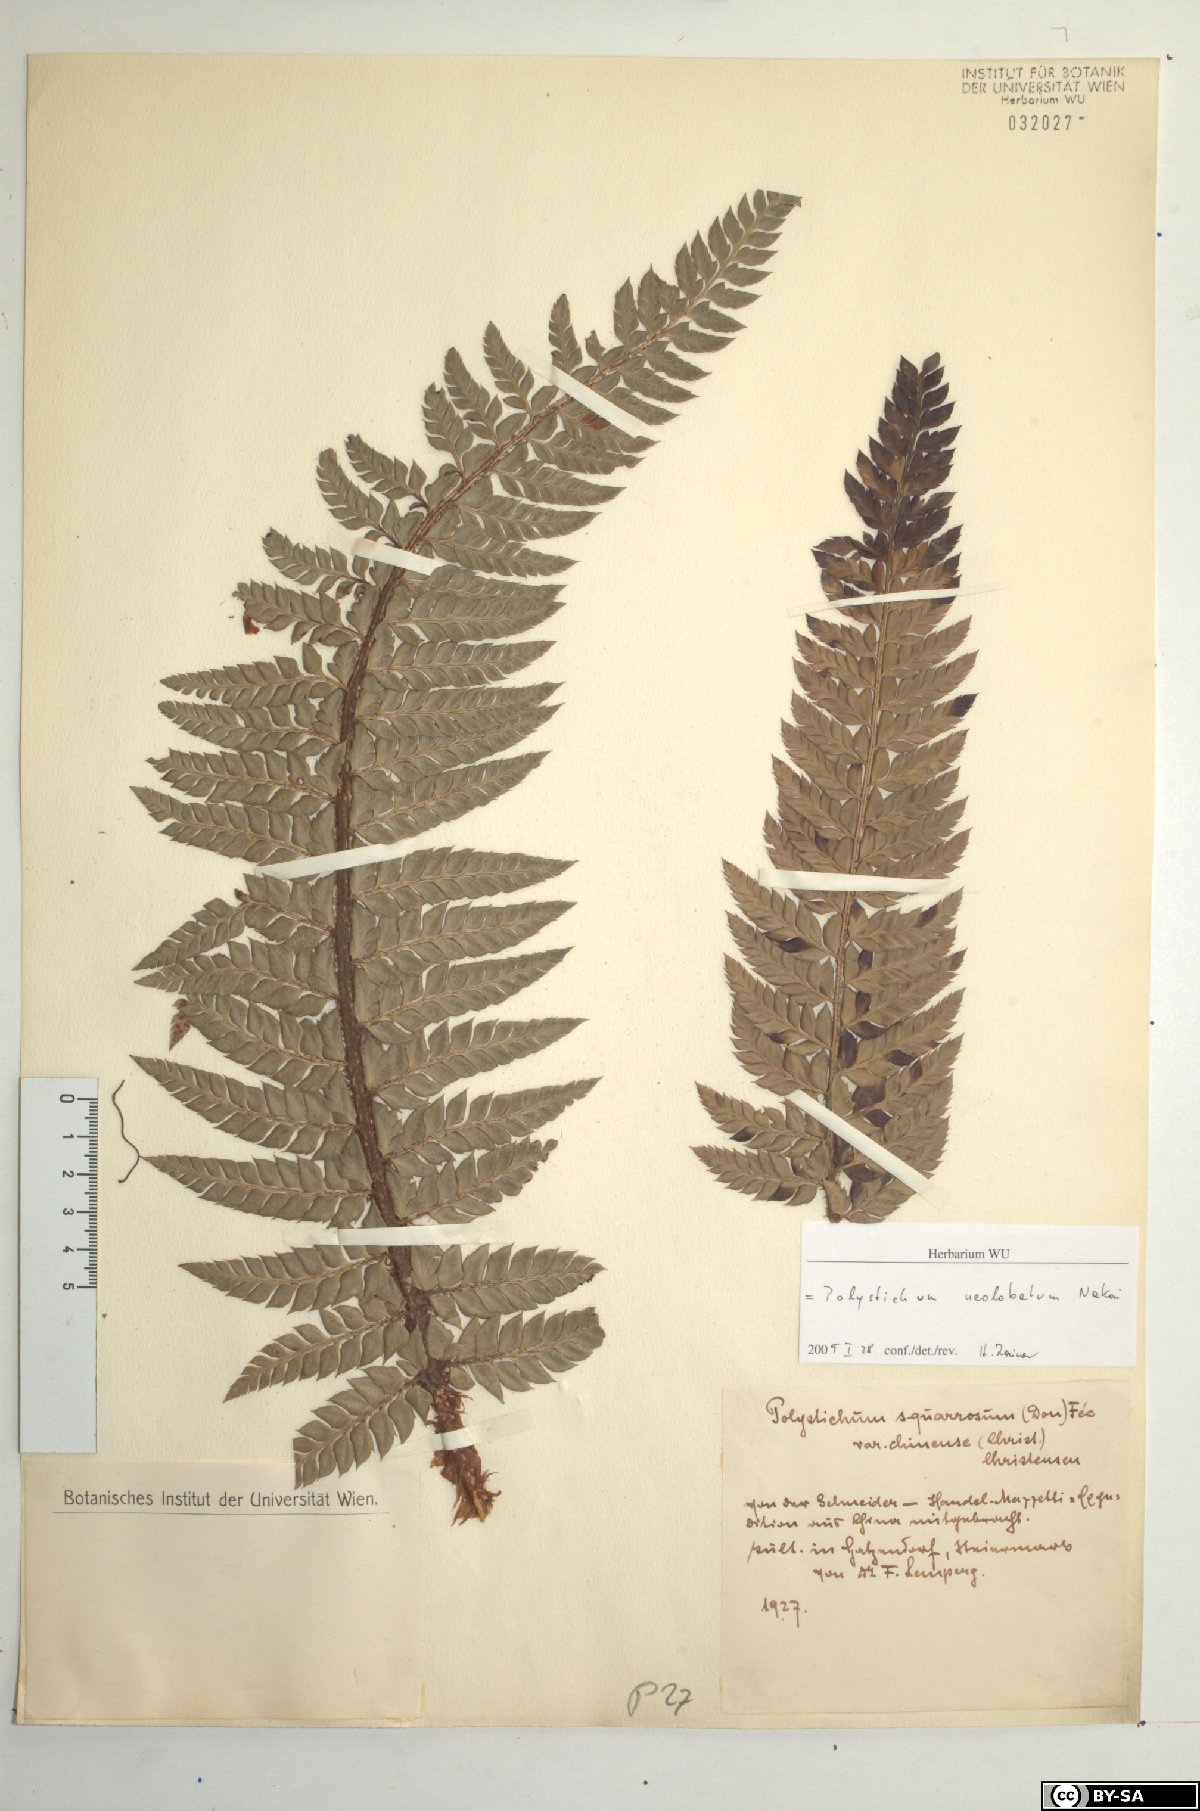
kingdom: Plantae
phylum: Tracheophyta
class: Polypodiopsida
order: Polypodiales
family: Dryopteridaceae
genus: Polystichum
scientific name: Polystichum neolobatum
